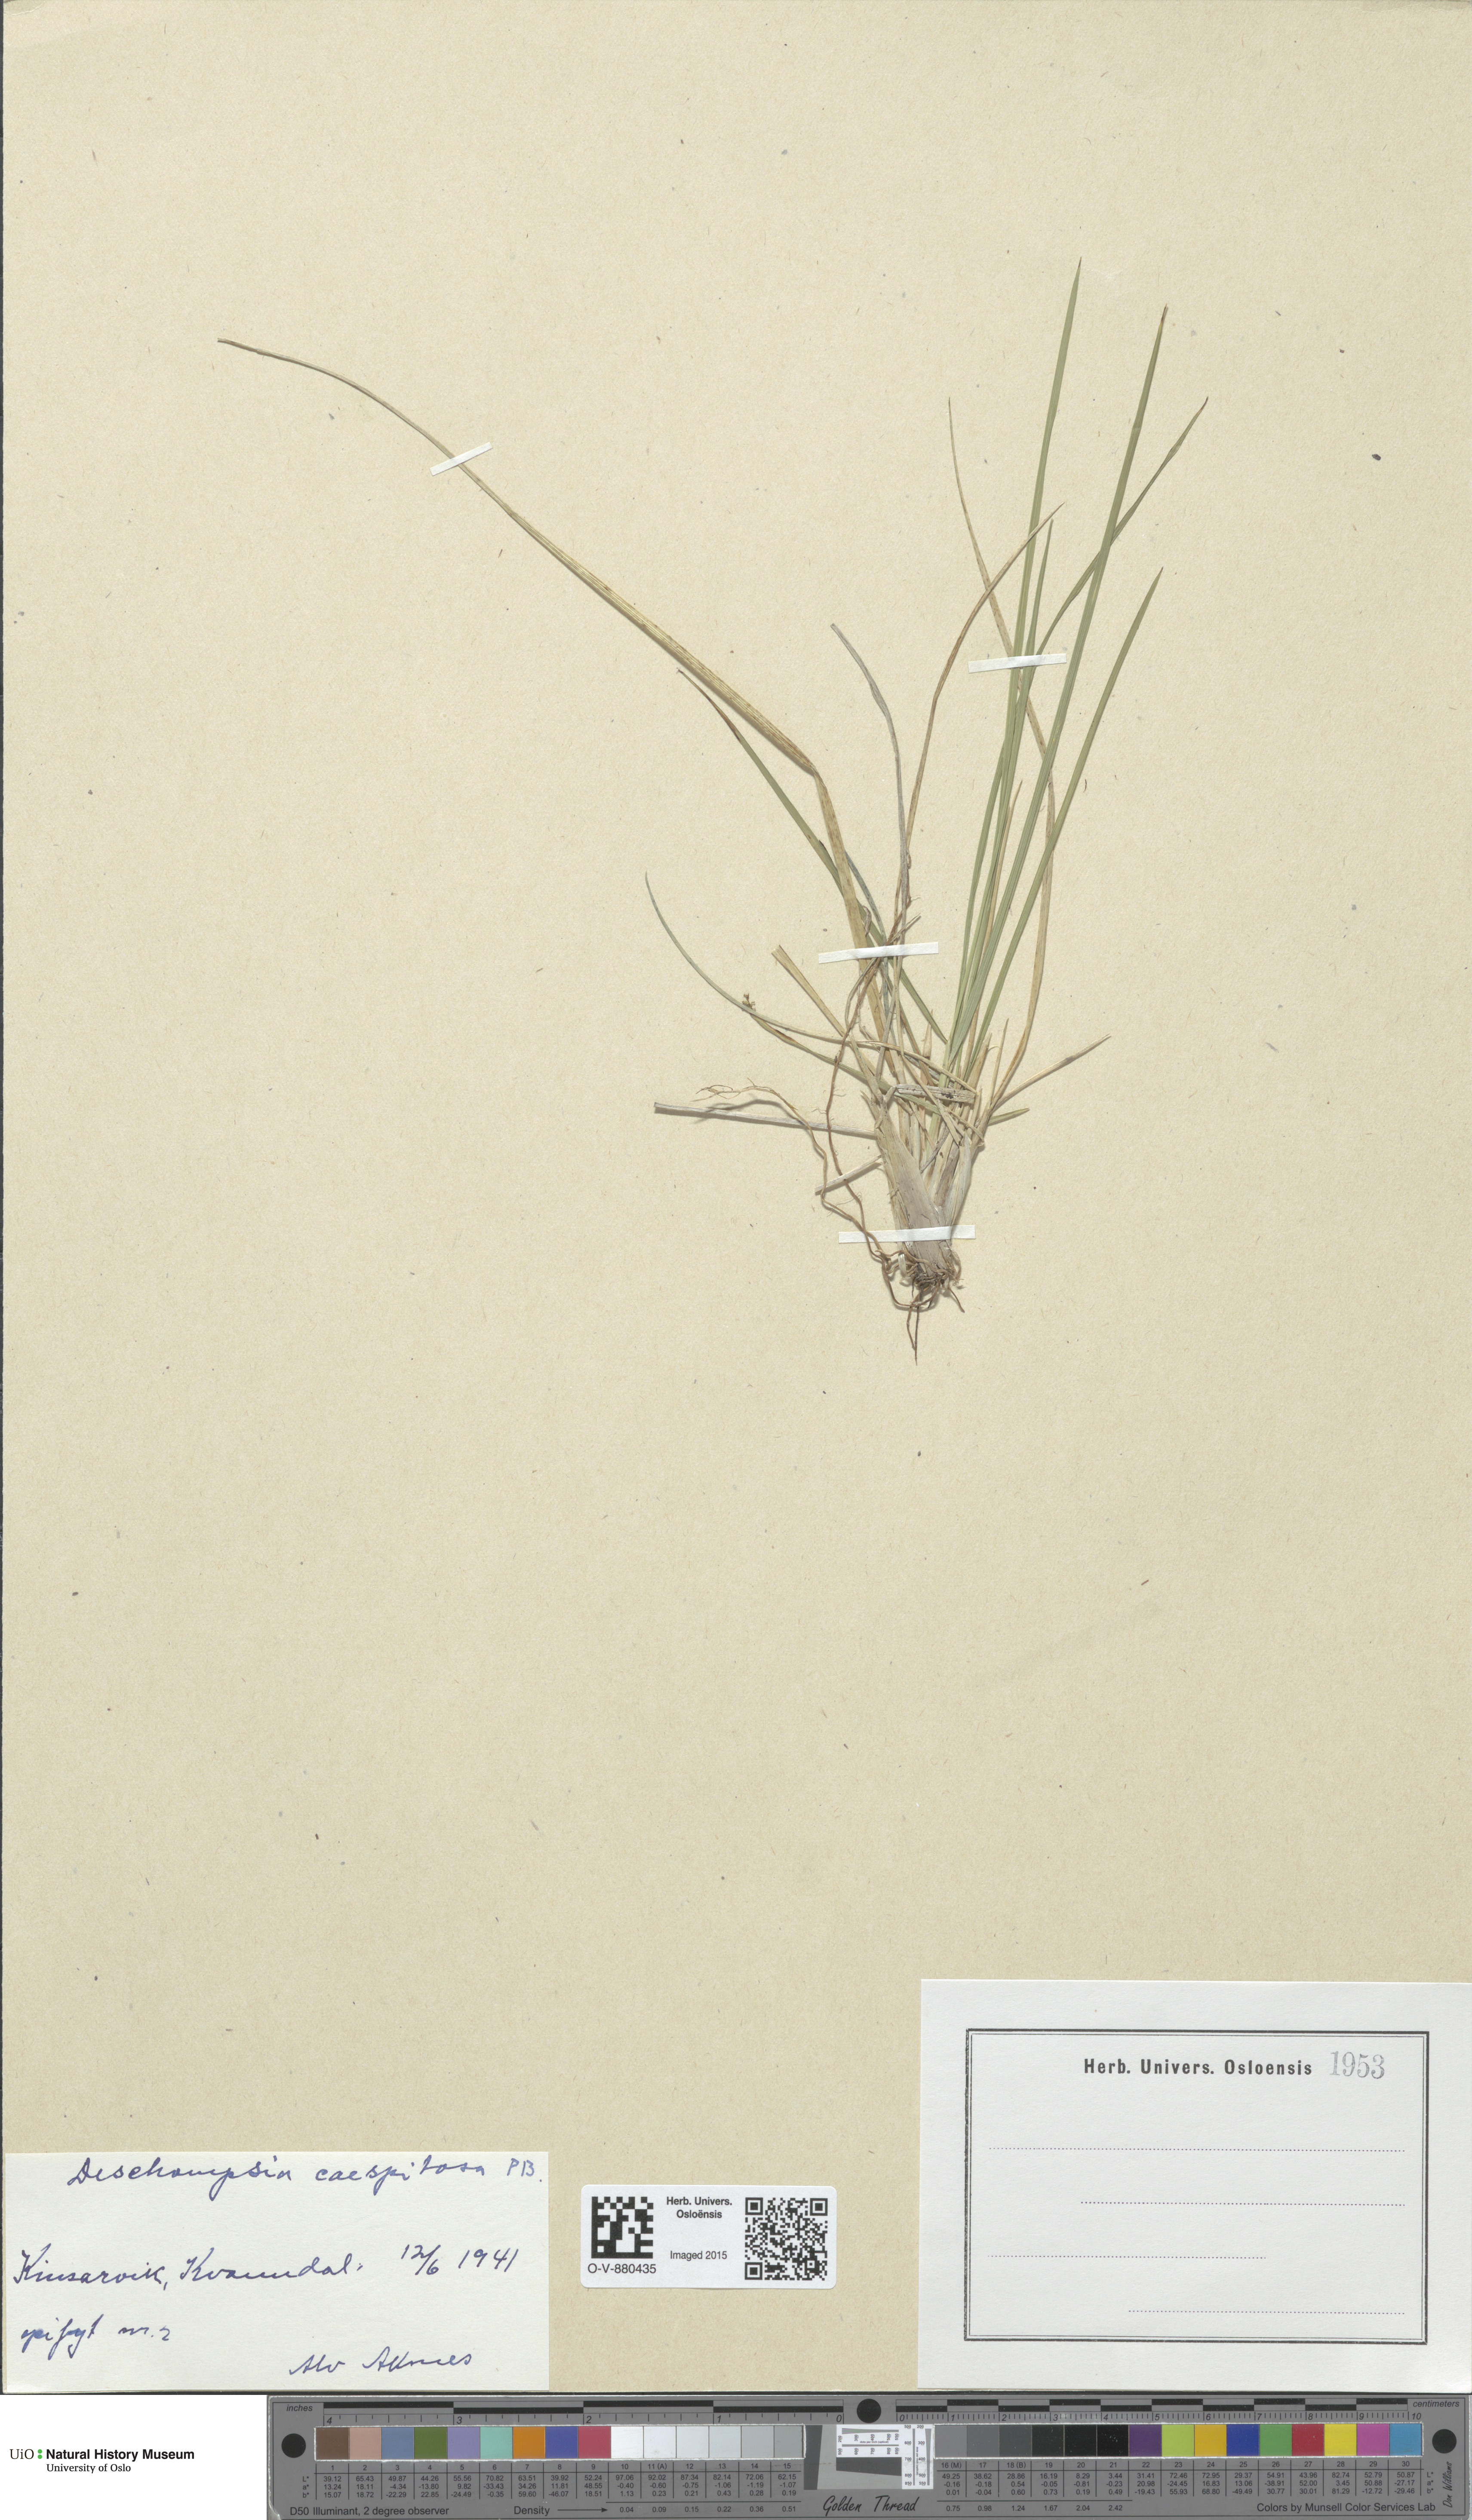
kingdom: Plantae
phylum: Tracheophyta
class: Liliopsida
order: Poales
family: Poaceae
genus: Deschampsia
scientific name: Deschampsia cespitosa
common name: Tufted hair-grass
